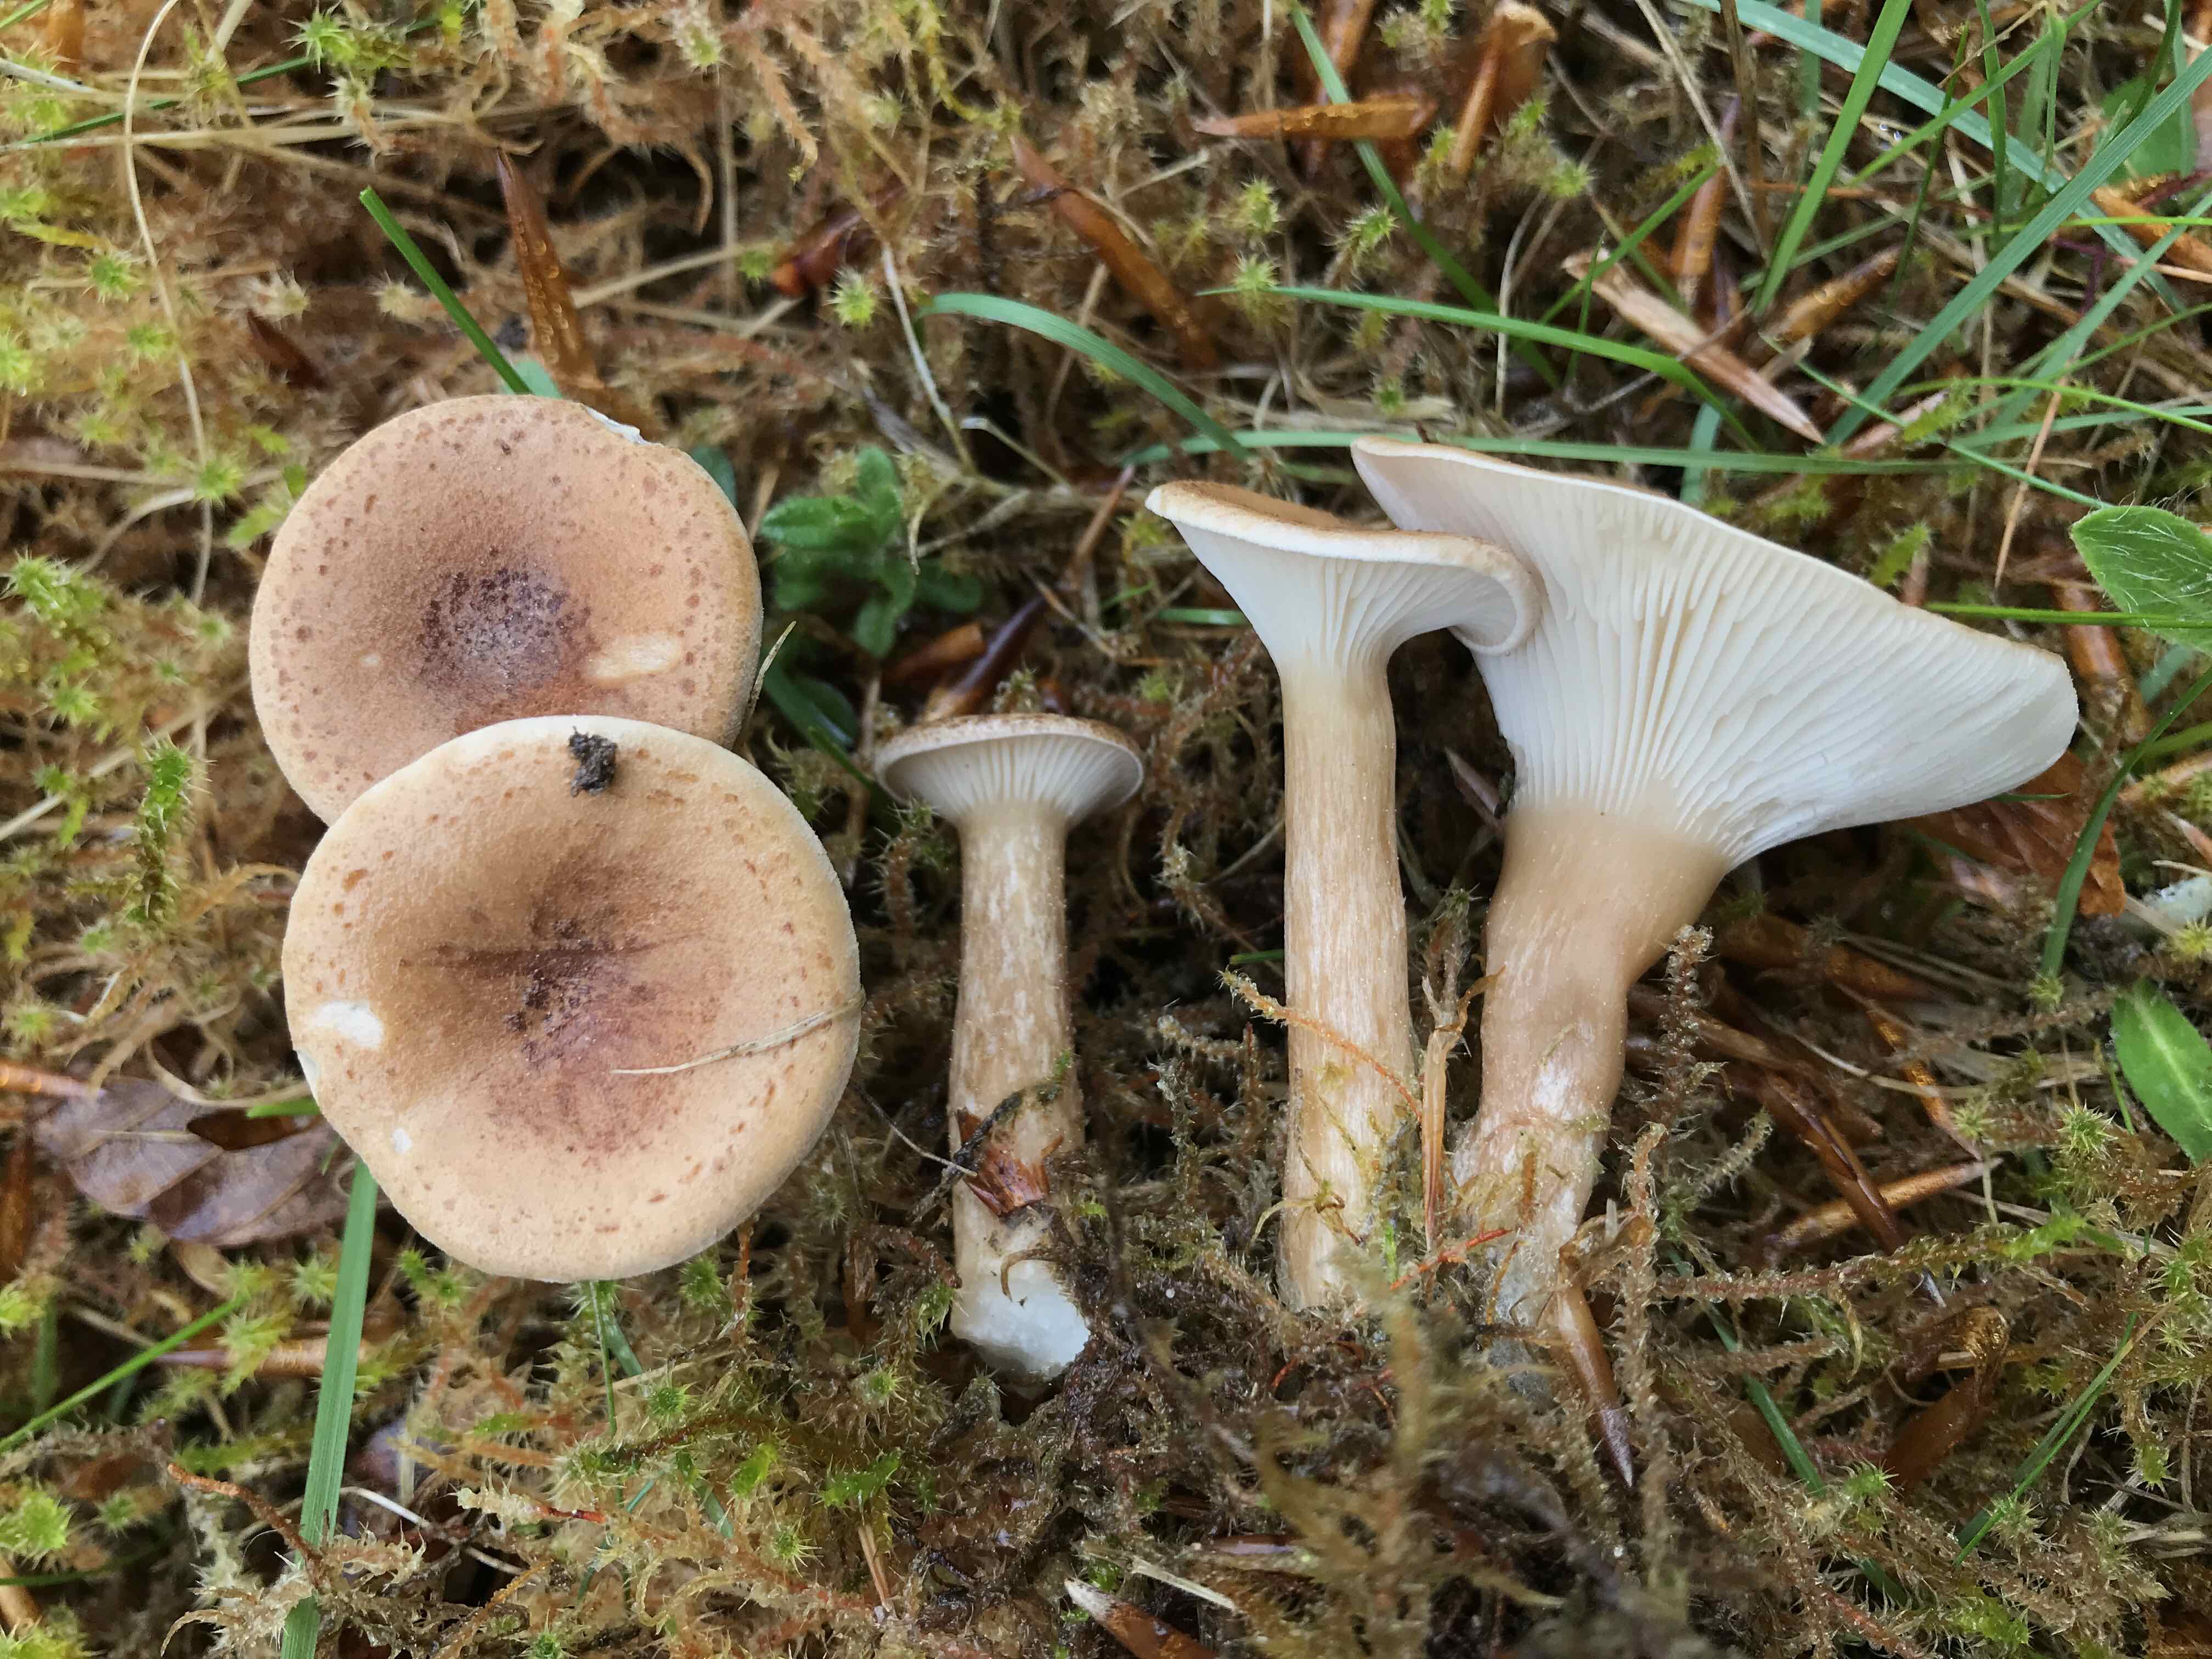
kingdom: Fungi
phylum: Basidiomycota
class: Agaricomycetes
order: Agaricales
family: Tricholomataceae
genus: Infundibulicybe
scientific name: Infundibulicybe squamulosa
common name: småskællet tragthat
